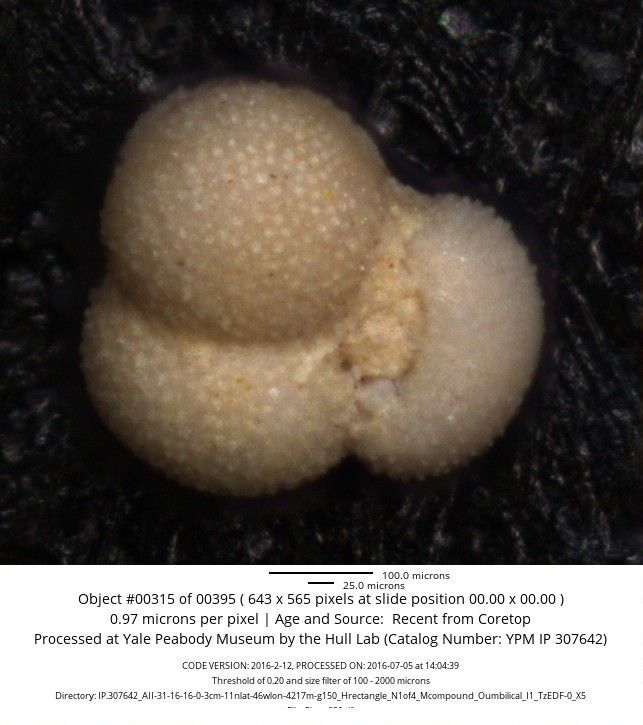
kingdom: Chromista
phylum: Foraminifera
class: Globothalamea
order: Rotaliida
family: Globigerinidae
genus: Globigerinoides
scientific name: Globigerinoides ruber
